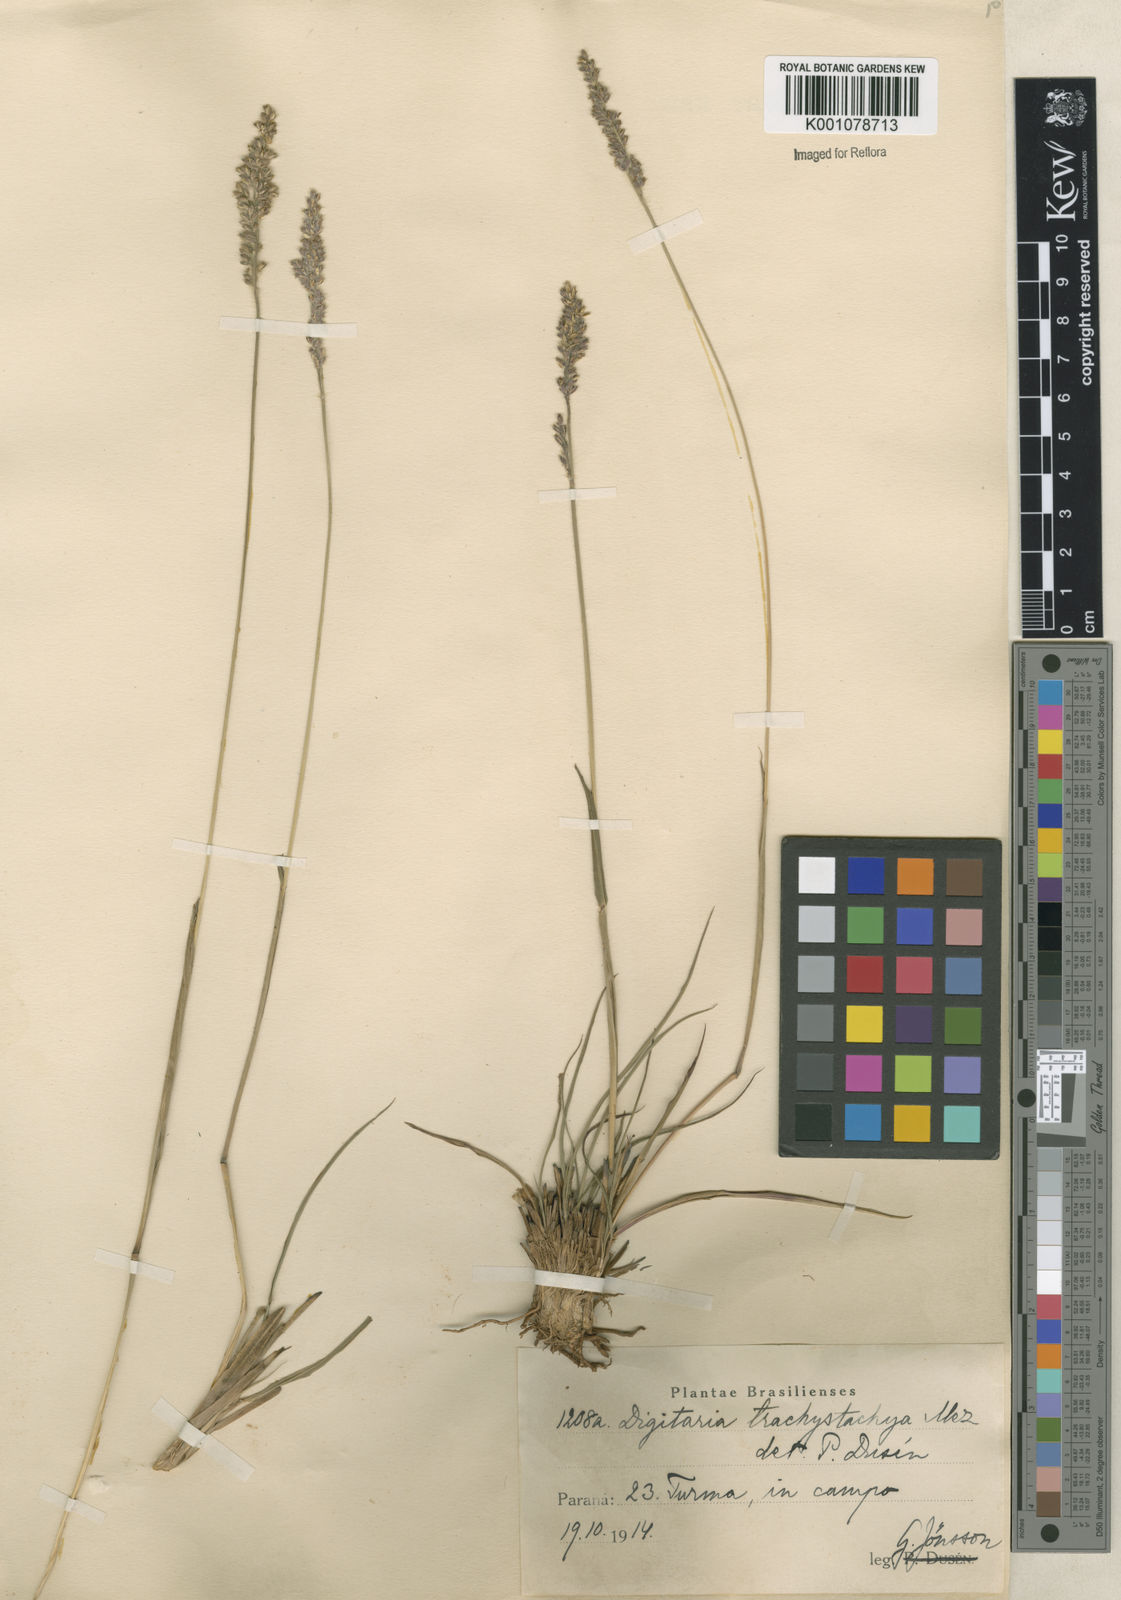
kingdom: Plantae
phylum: Tracheophyta
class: Liliopsida
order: Poales
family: Poaceae
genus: Anthaenantiopsis
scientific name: Anthaenantiopsis perforata
